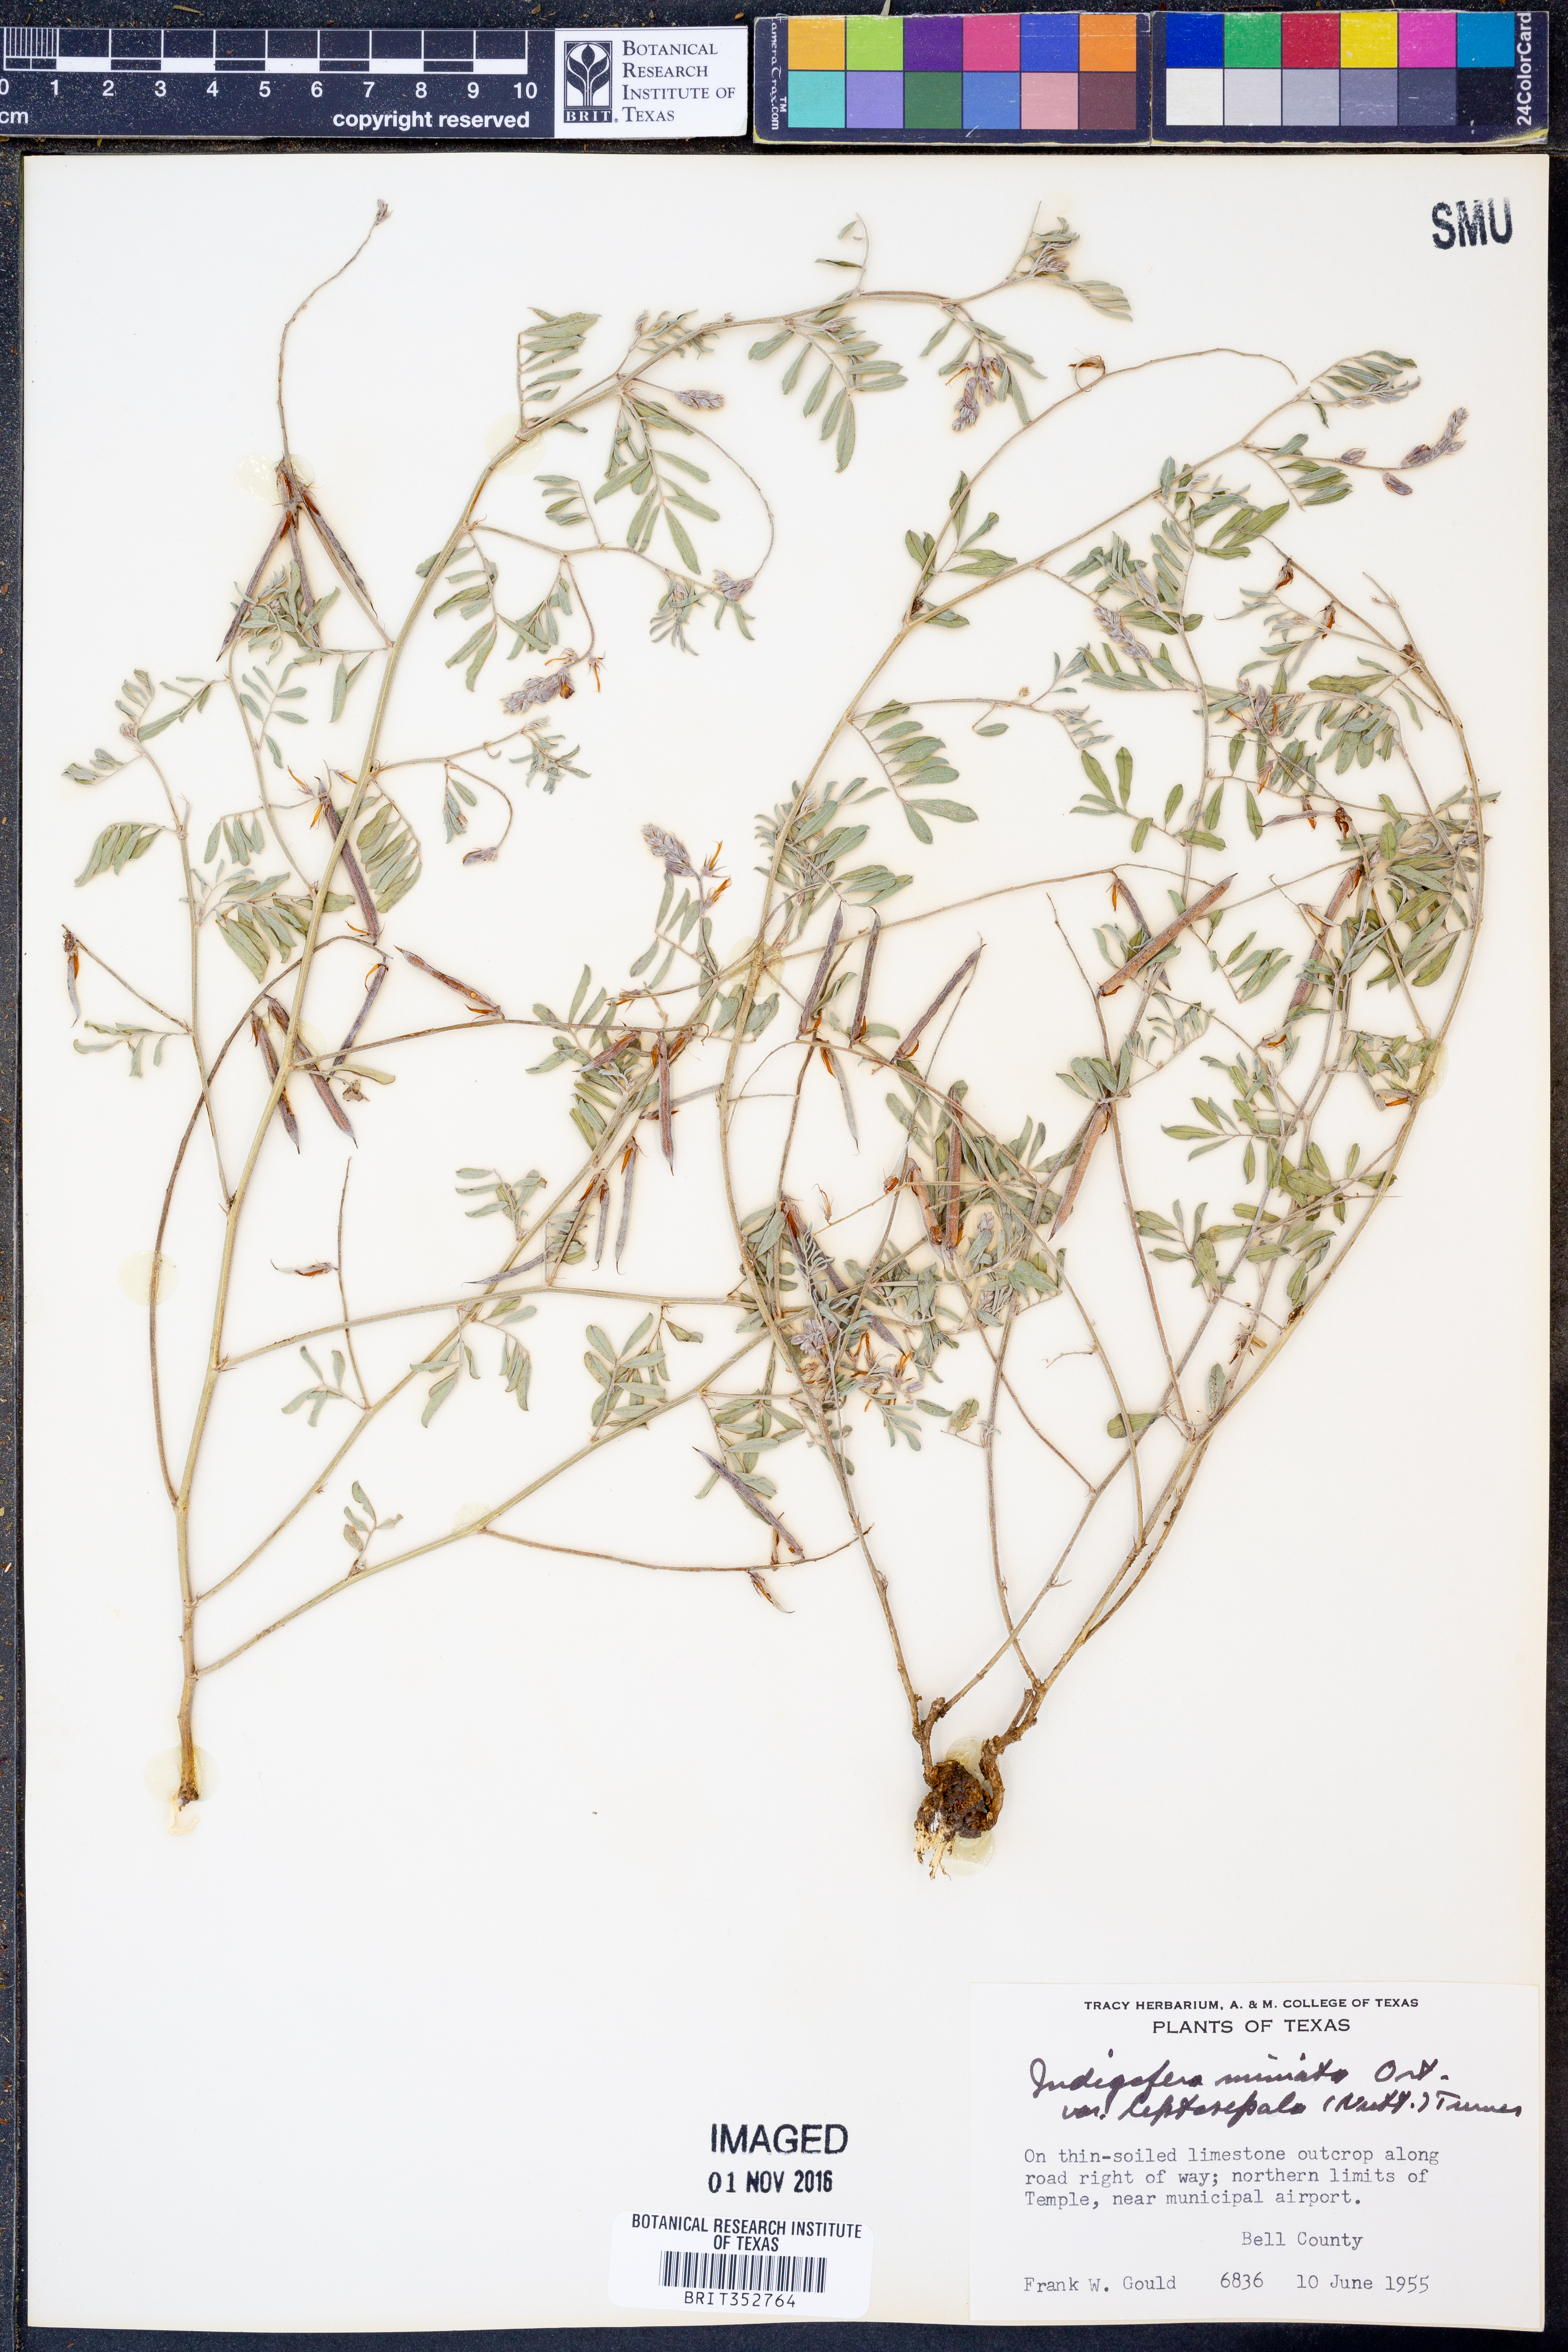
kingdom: Plantae
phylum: Tracheophyta
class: Magnoliopsida
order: Fabales
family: Fabaceae
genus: Indigofera
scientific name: Indigofera miniata
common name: Coast indigo
